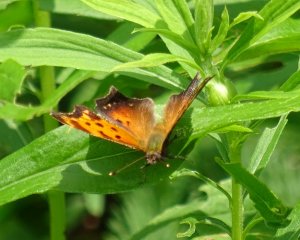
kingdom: Animalia
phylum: Arthropoda
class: Insecta
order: Lepidoptera
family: Nymphalidae
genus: Polygonia
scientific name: Polygonia progne
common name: Gray Comma
